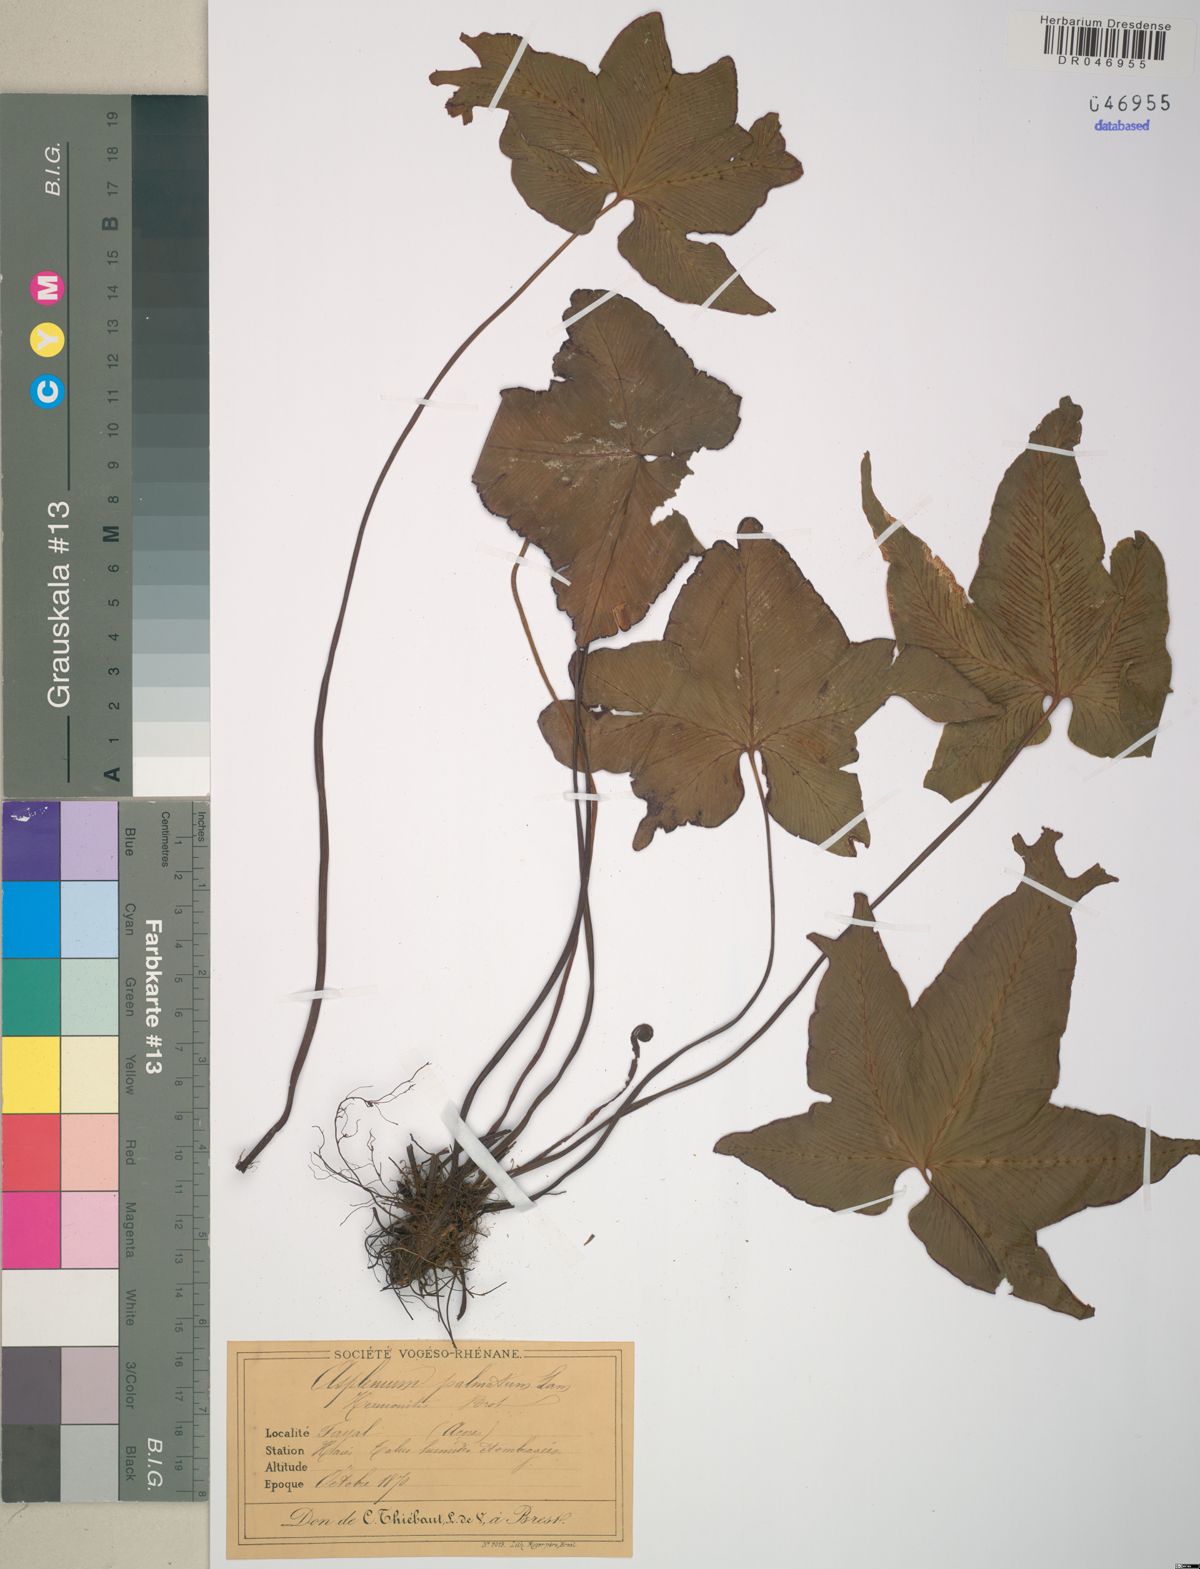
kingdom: Plantae
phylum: Tracheophyta
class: Polypodiopsida
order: Polypodiales
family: Aspleniaceae
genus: Asplenium
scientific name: Asplenium hemionitis
